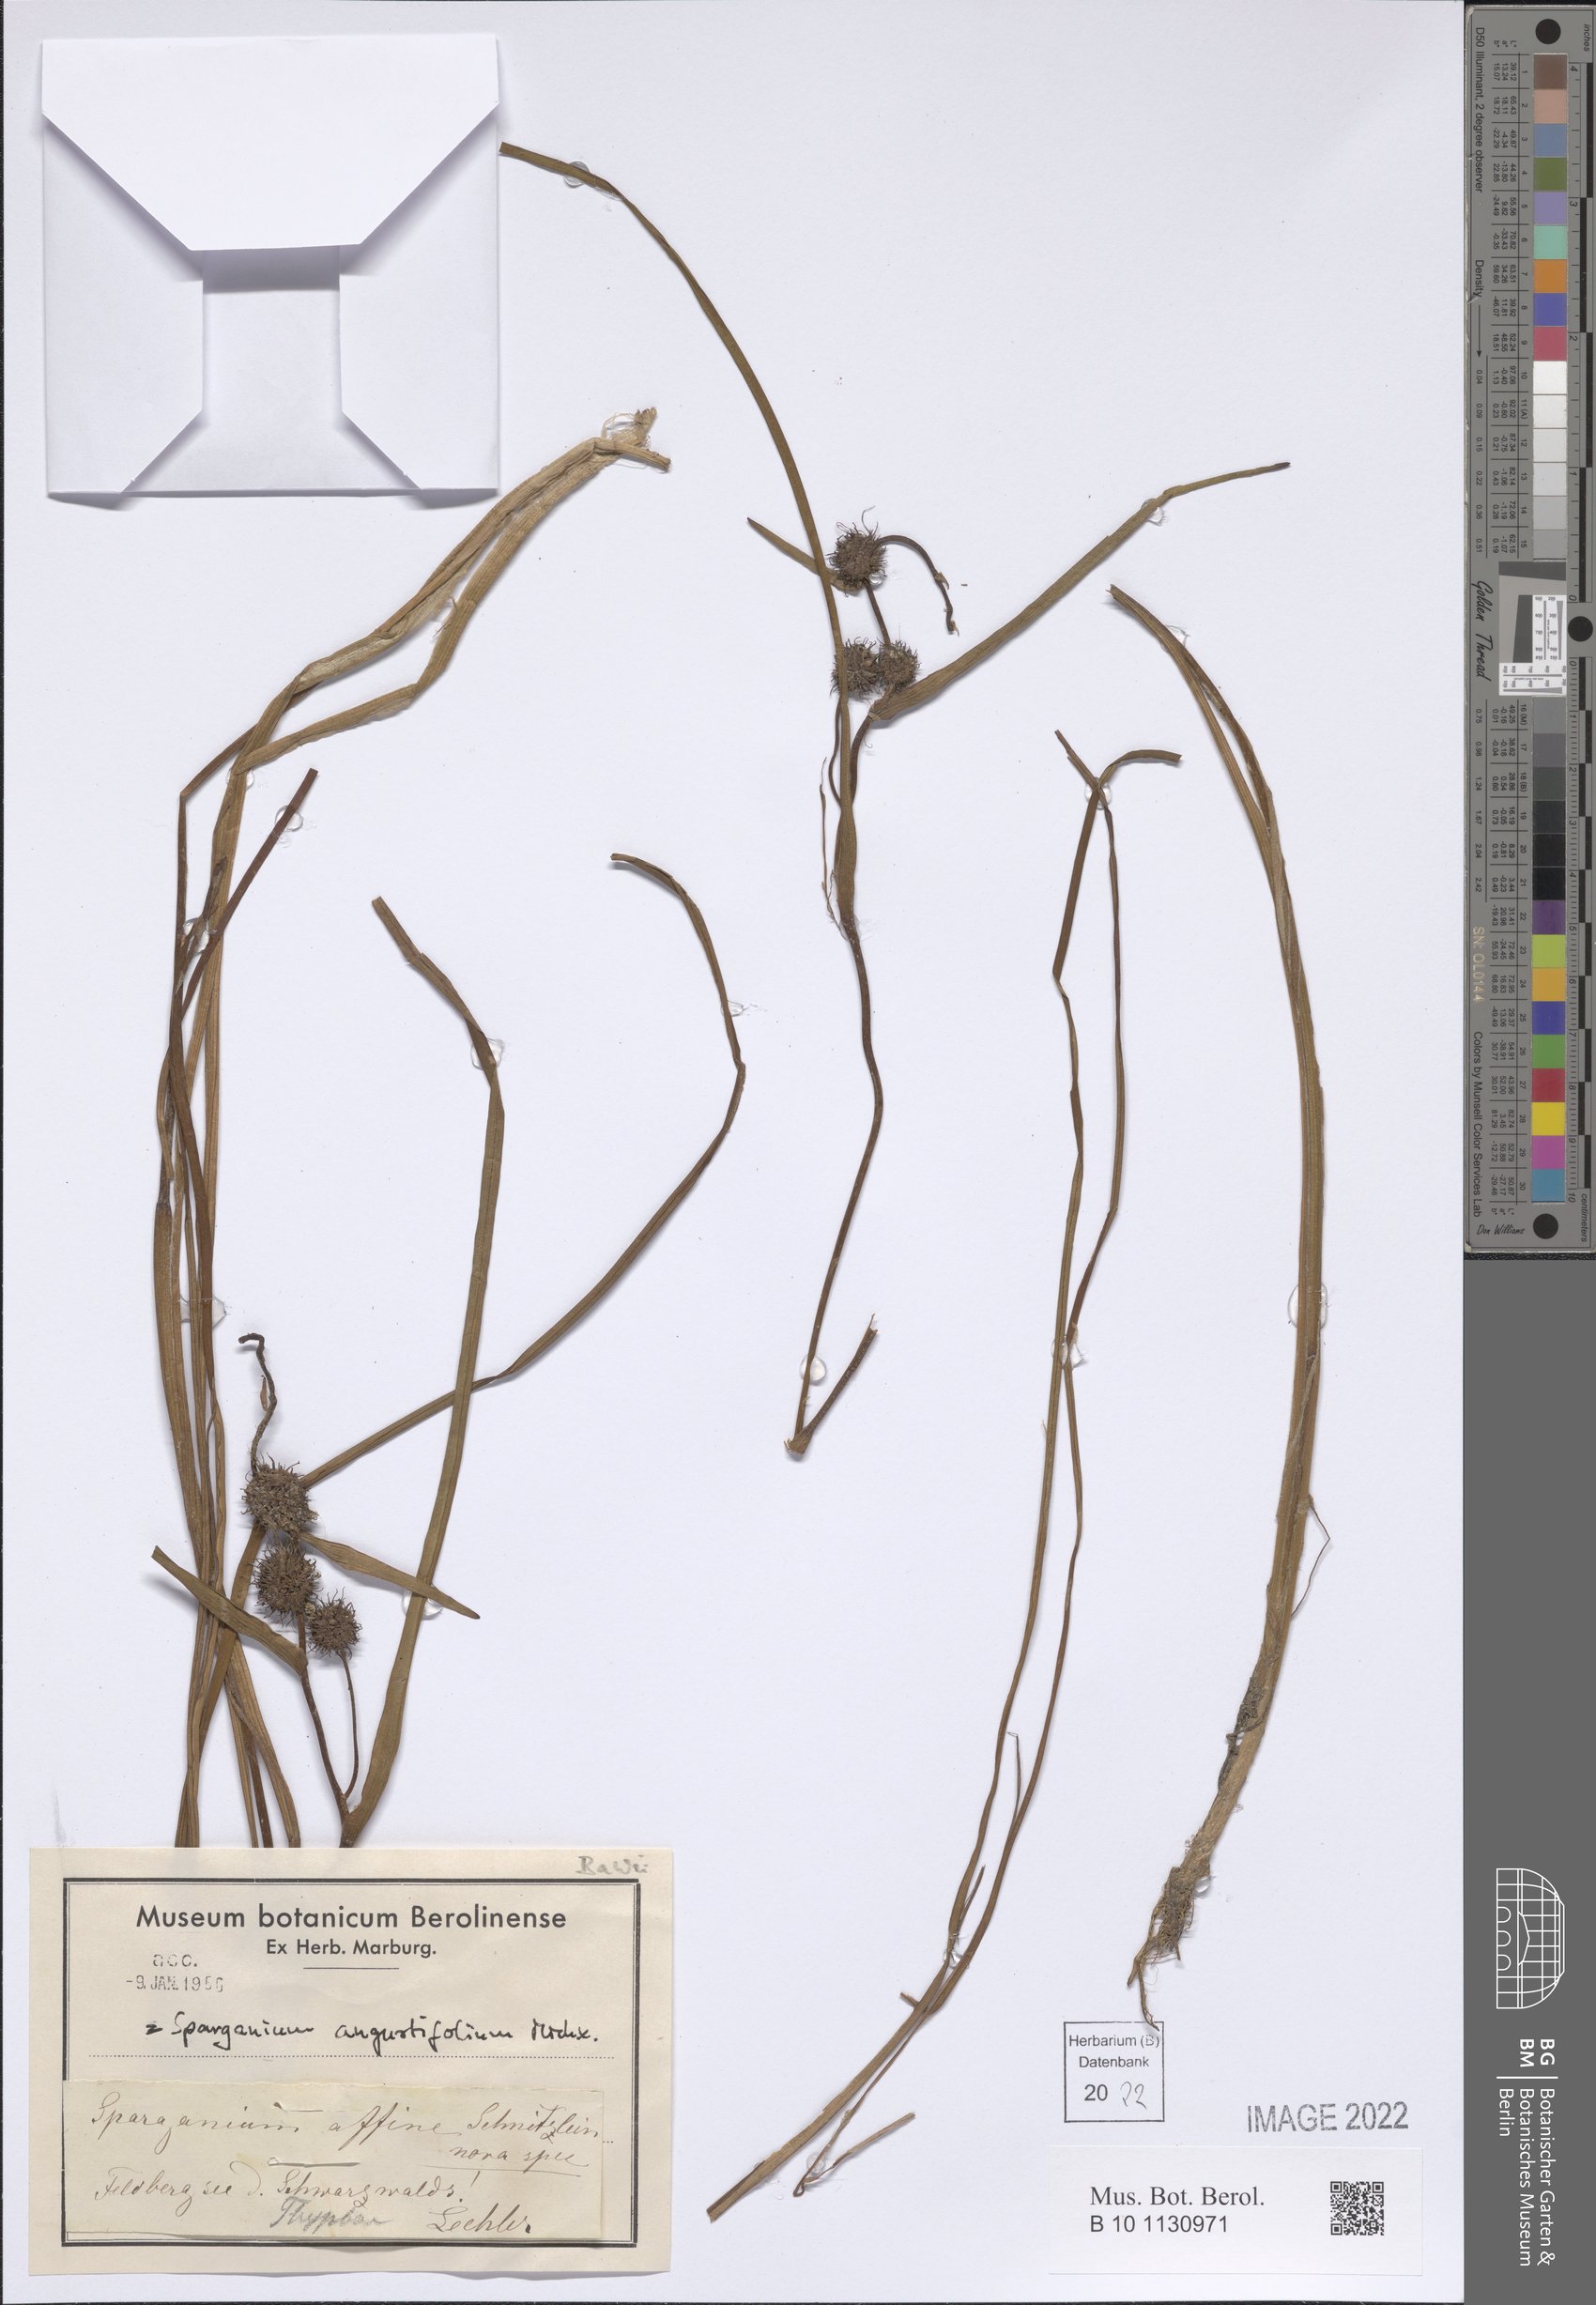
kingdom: Plantae
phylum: Tracheophyta
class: Liliopsida
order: Poales
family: Typhaceae
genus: Sparganium
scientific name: Sparganium angustifolium
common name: Floating bur-reed
